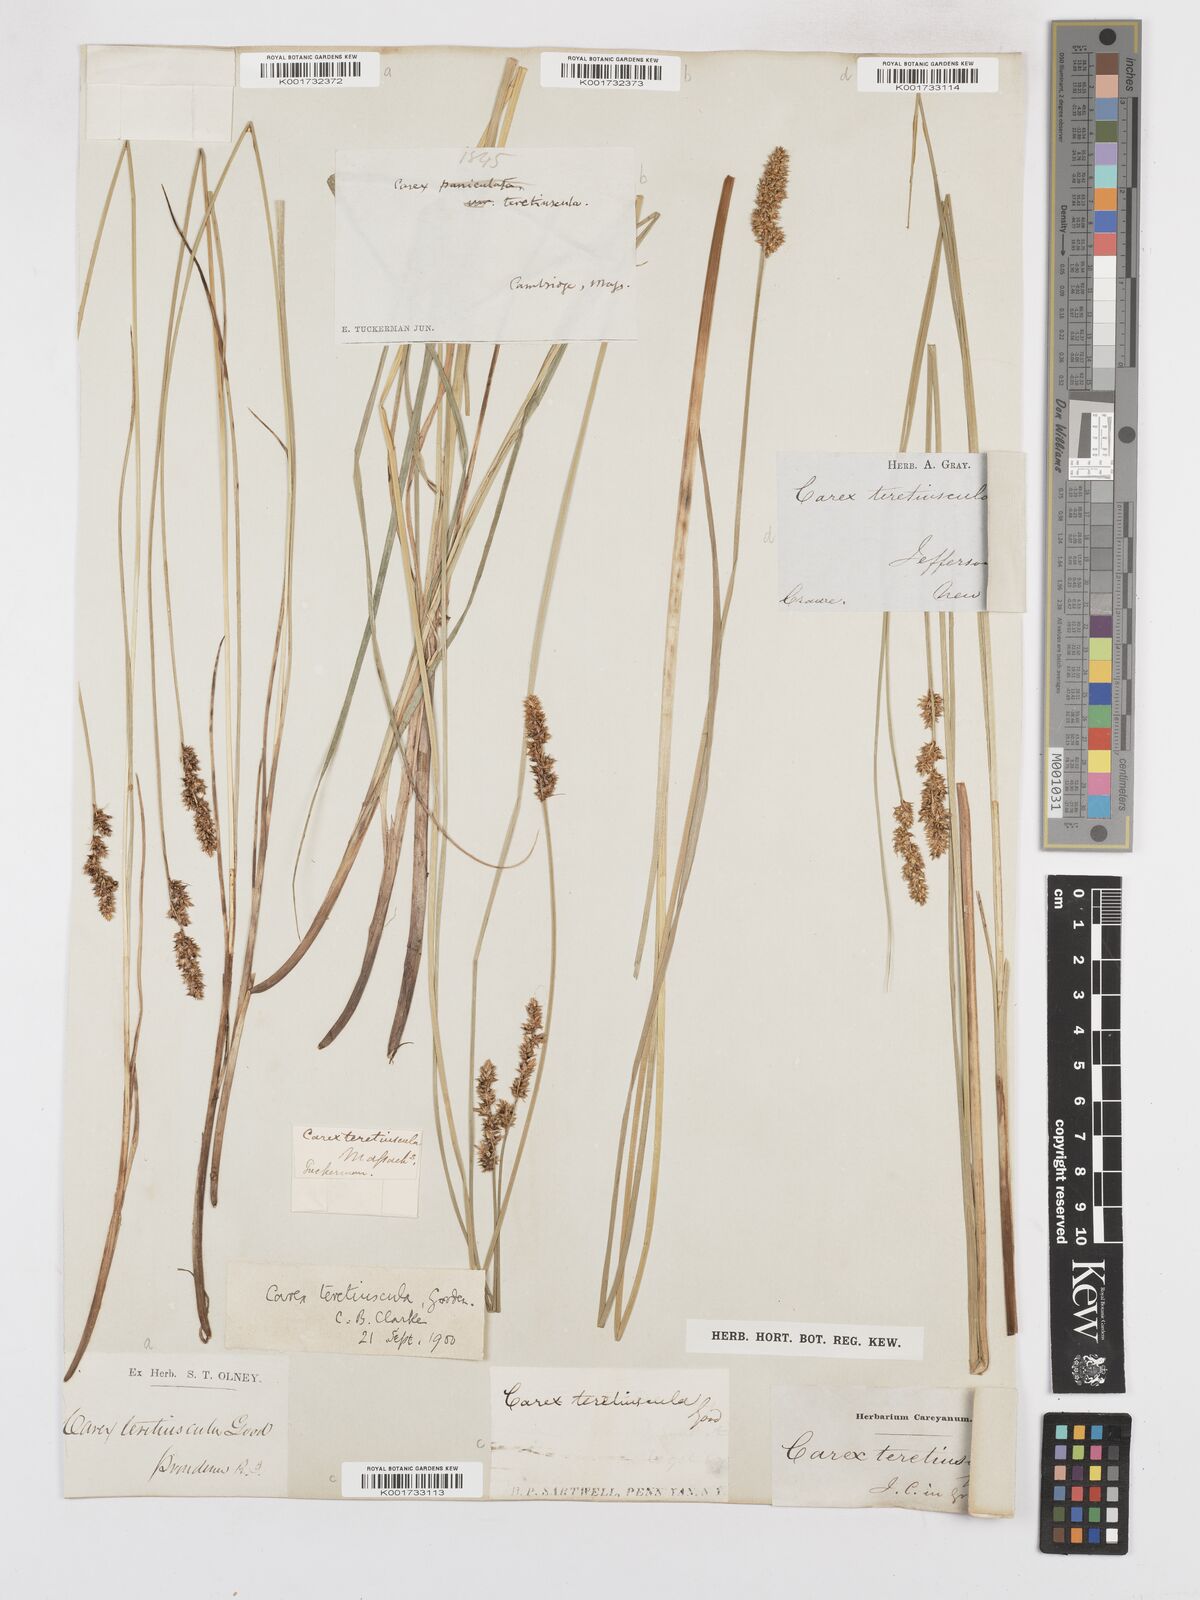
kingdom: Plantae
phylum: Tracheophyta
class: Liliopsida
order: Poales
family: Cyperaceae
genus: Carex
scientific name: Carex prairea
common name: Prairie sedge
